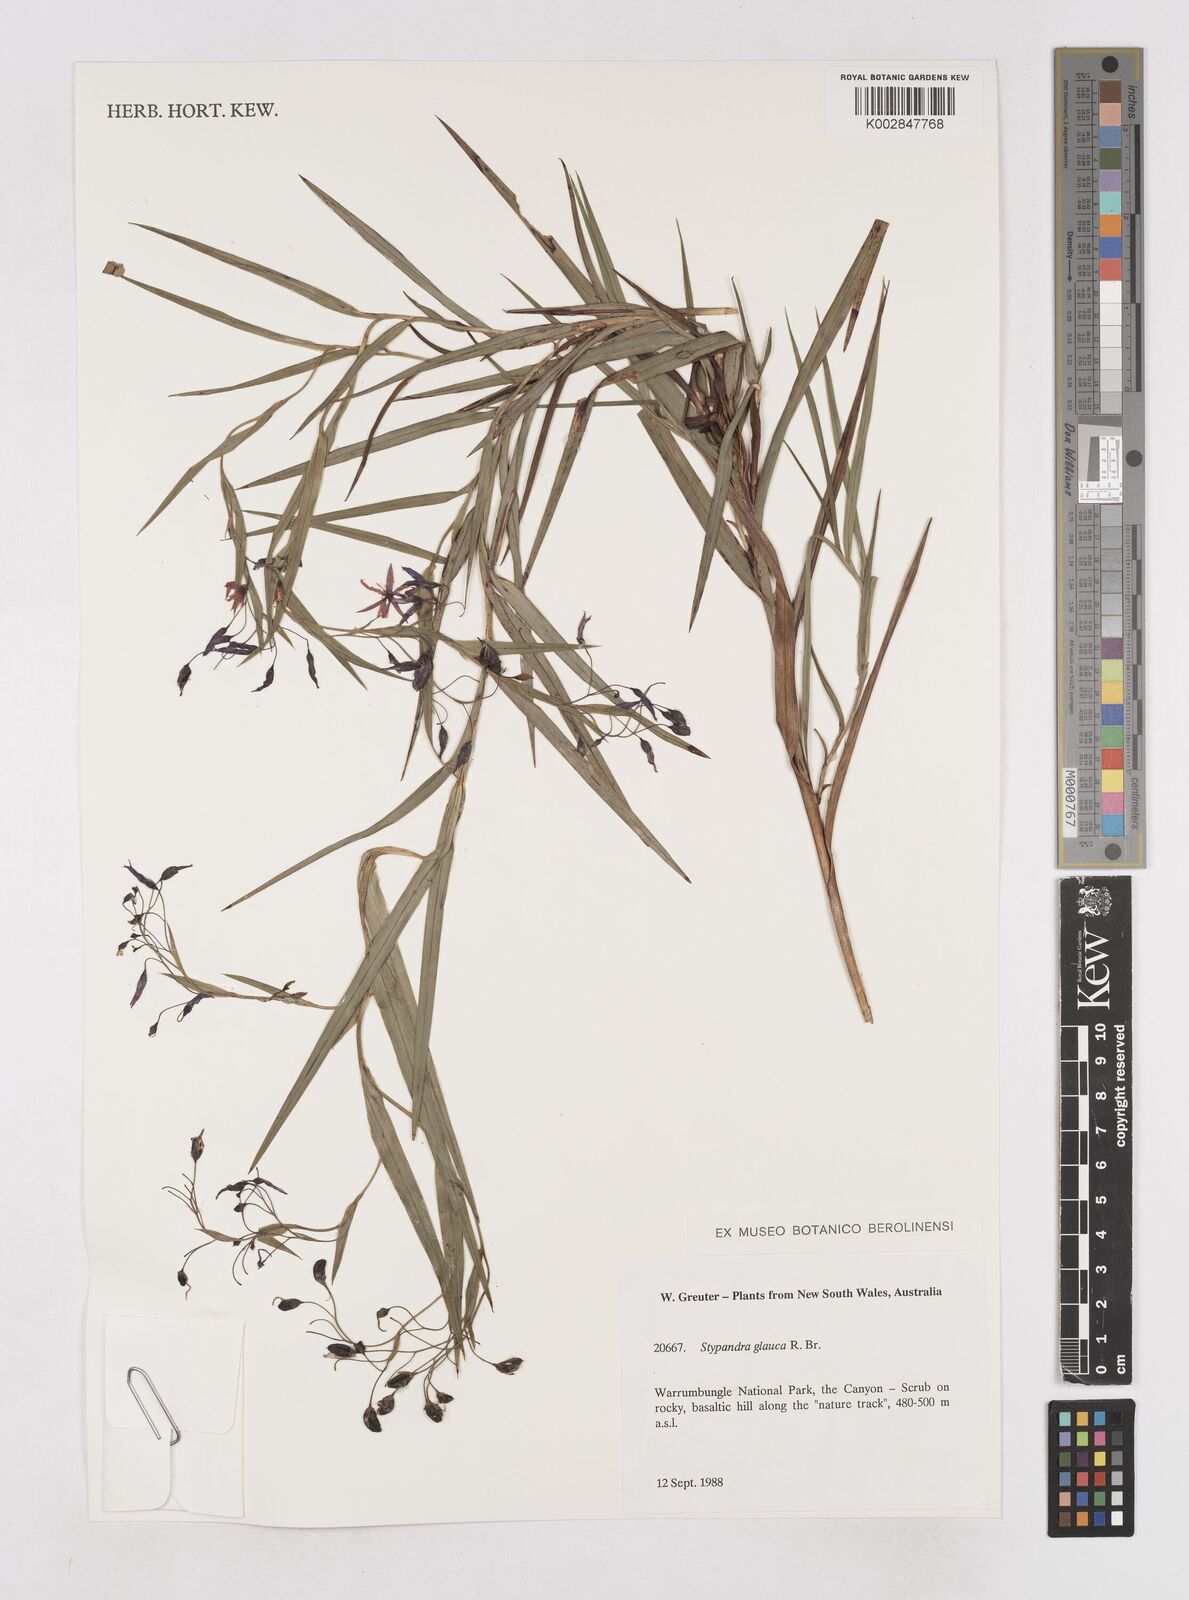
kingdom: Plantae
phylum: Tracheophyta
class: Liliopsida
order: Asparagales
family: Asphodelaceae
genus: Stypandra
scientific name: Stypandra glauca
